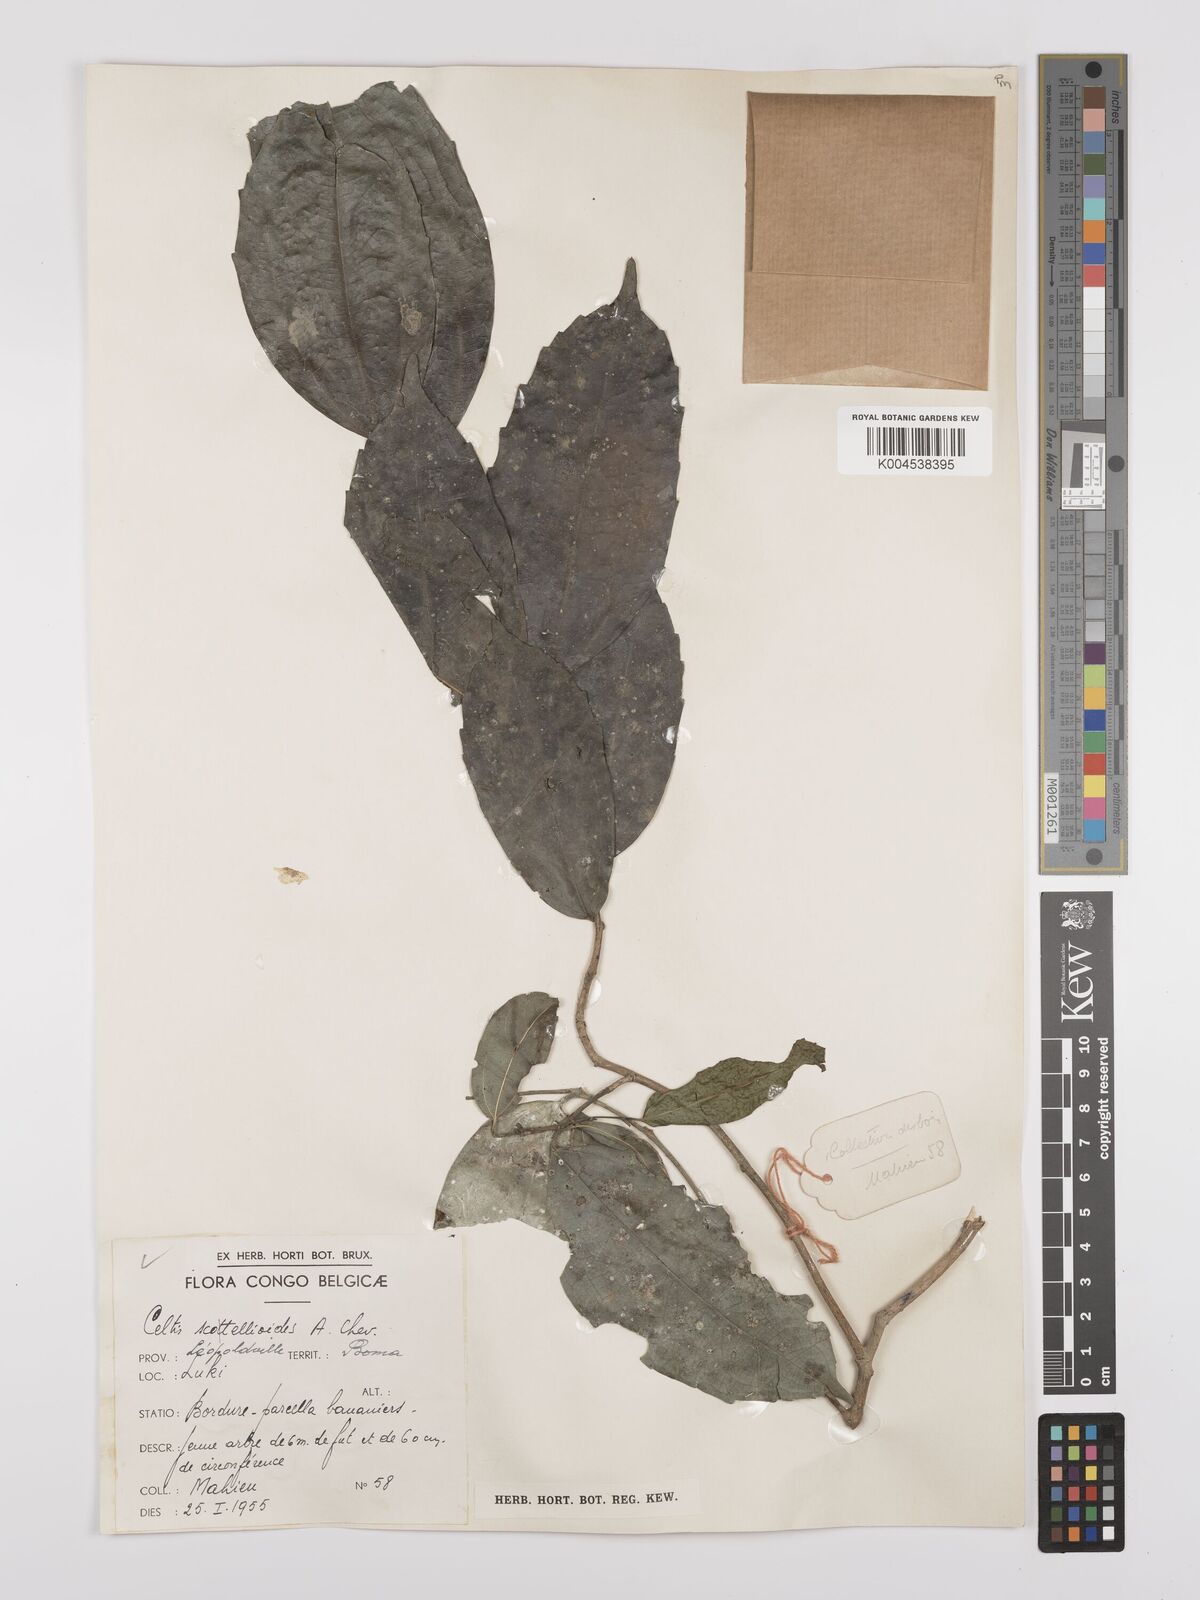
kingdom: Plantae
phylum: Tracheophyta
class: Magnoliopsida
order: Rosales
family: Cannabaceae
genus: Celtis
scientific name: Celtis philippensis
